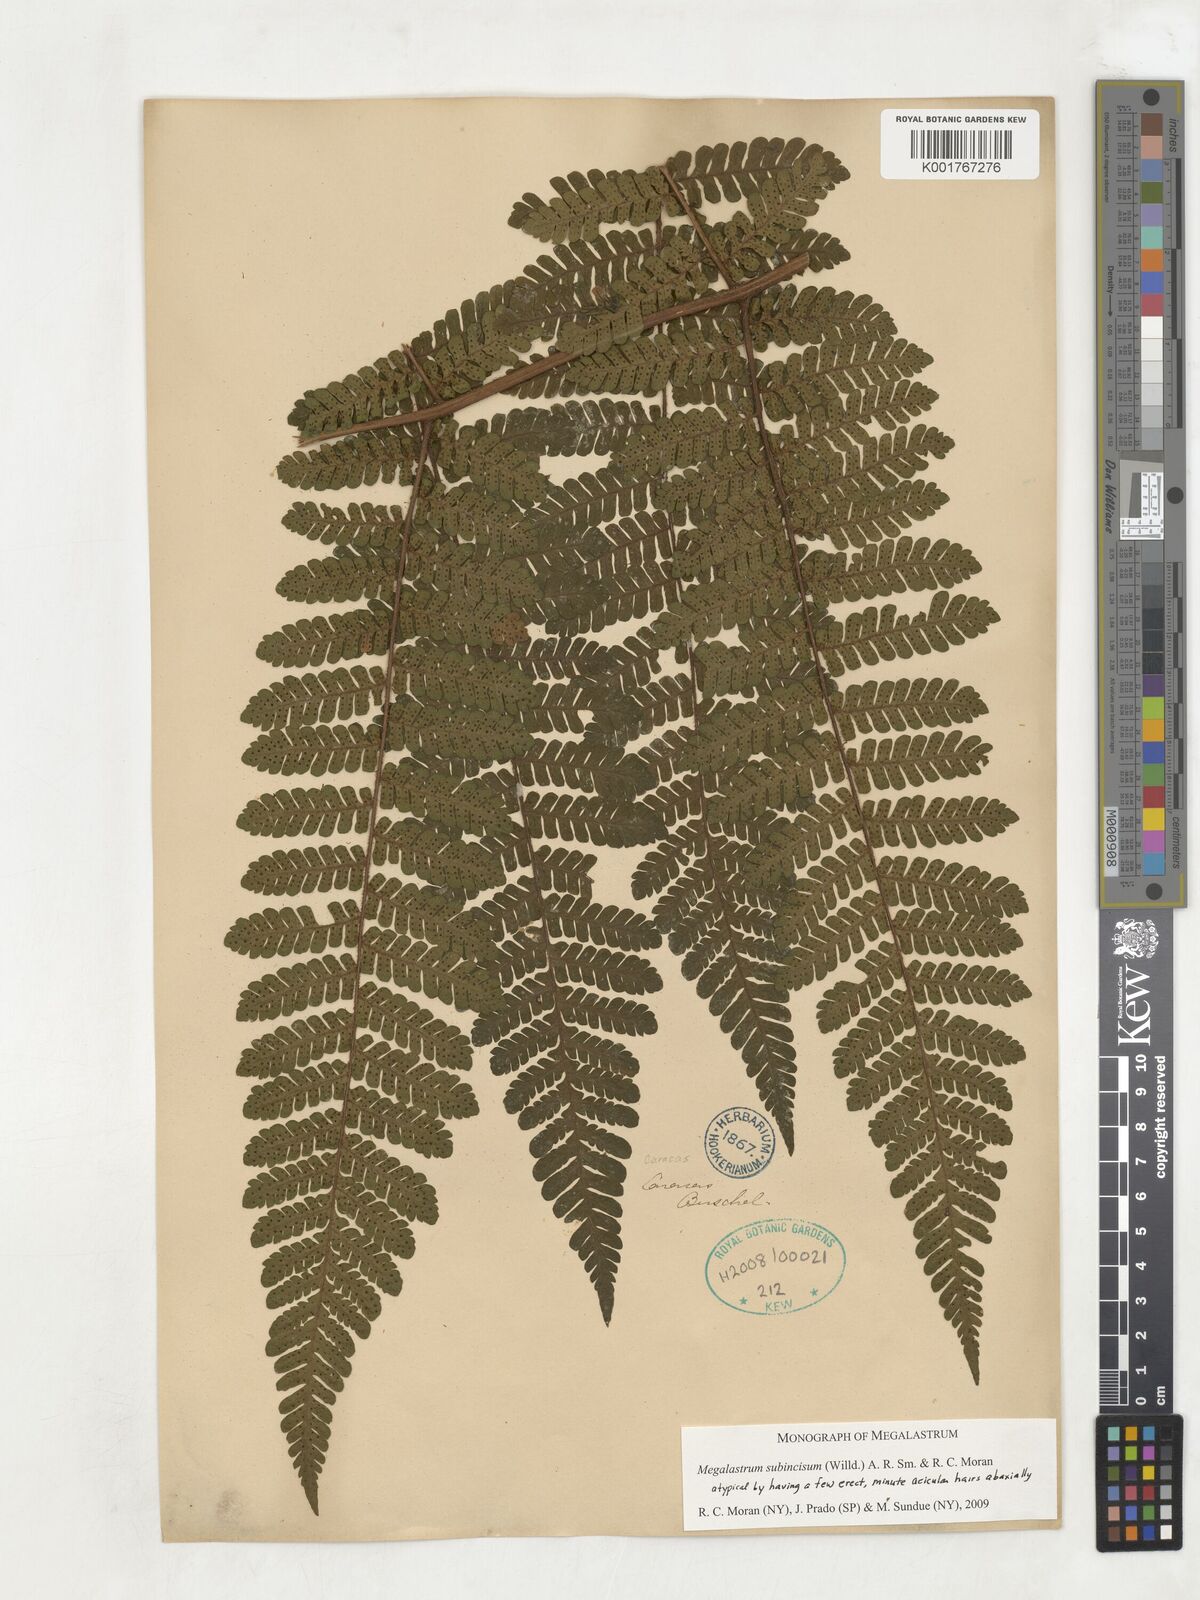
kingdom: Plantae
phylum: Tracheophyta
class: Polypodiopsida
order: Polypodiales
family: Dryopteridaceae
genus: Megalastrum
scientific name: Megalastrum subincisum
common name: Jagleaf junglefern
